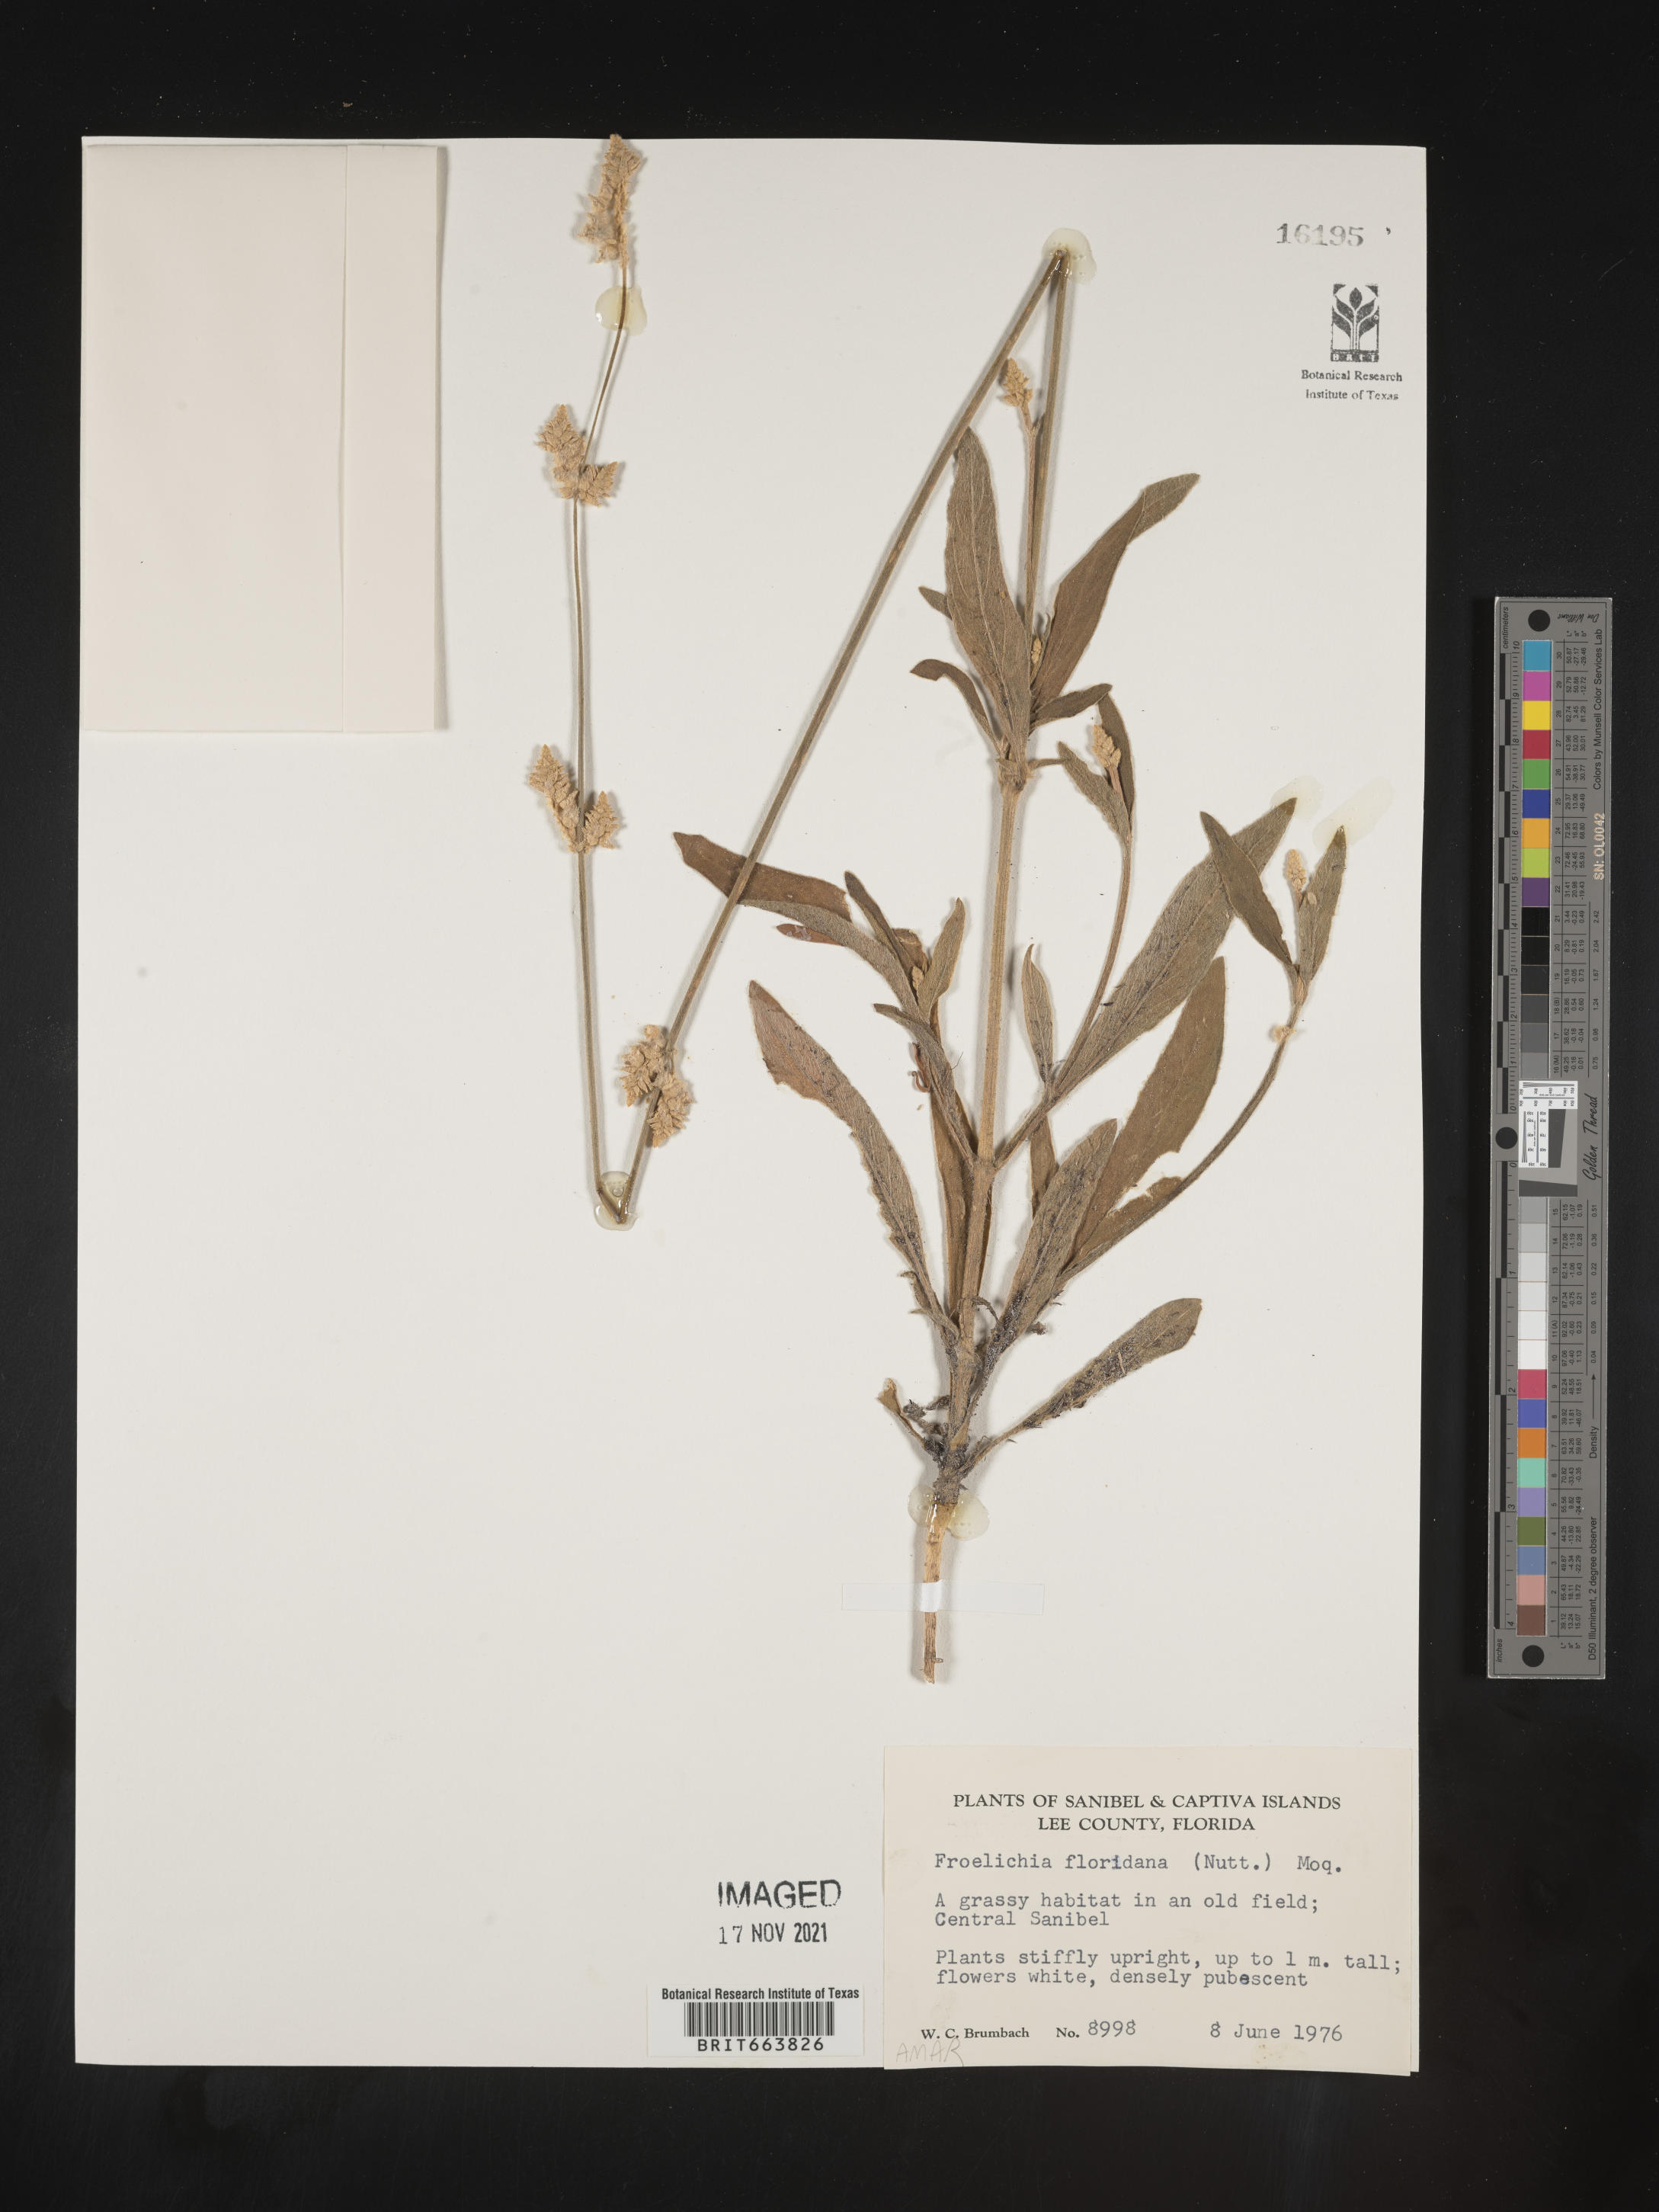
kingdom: Plantae
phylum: Tracheophyta
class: Magnoliopsida
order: Caryophyllales
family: Amaranthaceae
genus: Froelichia
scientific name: Froelichia floridana
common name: Florida snake-cotton
